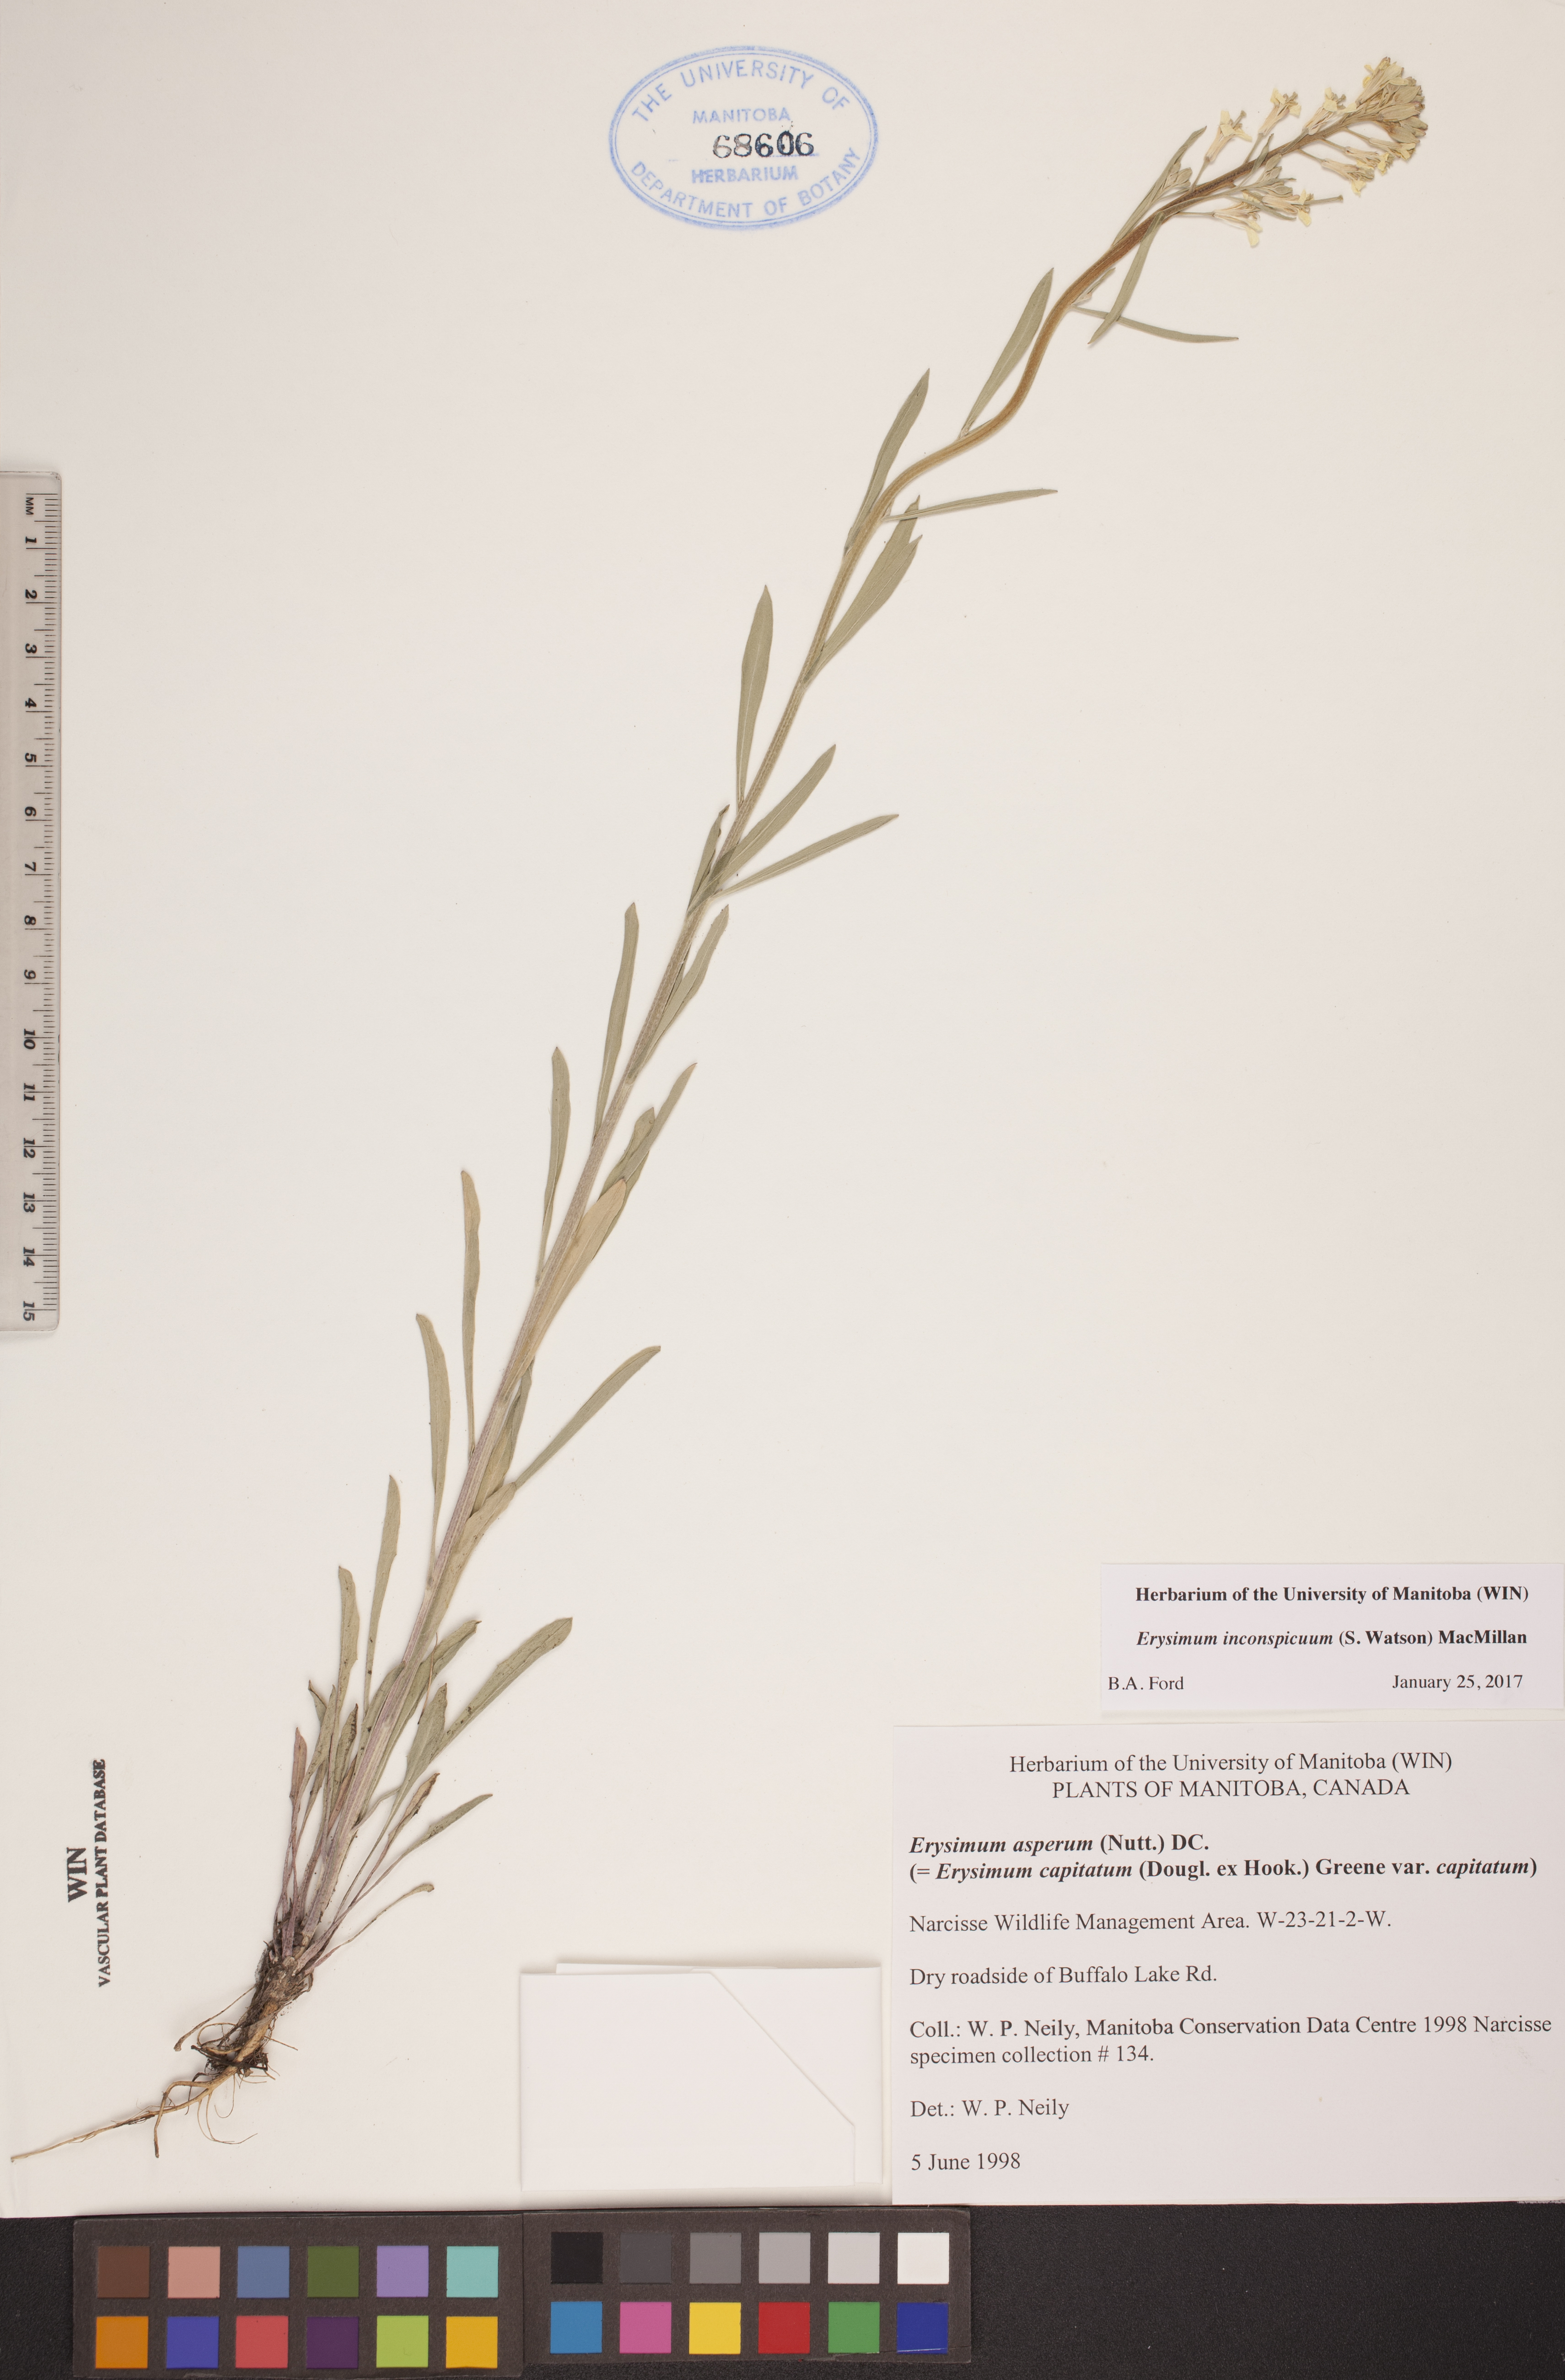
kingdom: Plantae
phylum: Tracheophyta
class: Magnoliopsida
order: Brassicales
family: Brassicaceae
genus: Erysimum
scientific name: Erysimum inconspicuum
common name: Shy wallflower
